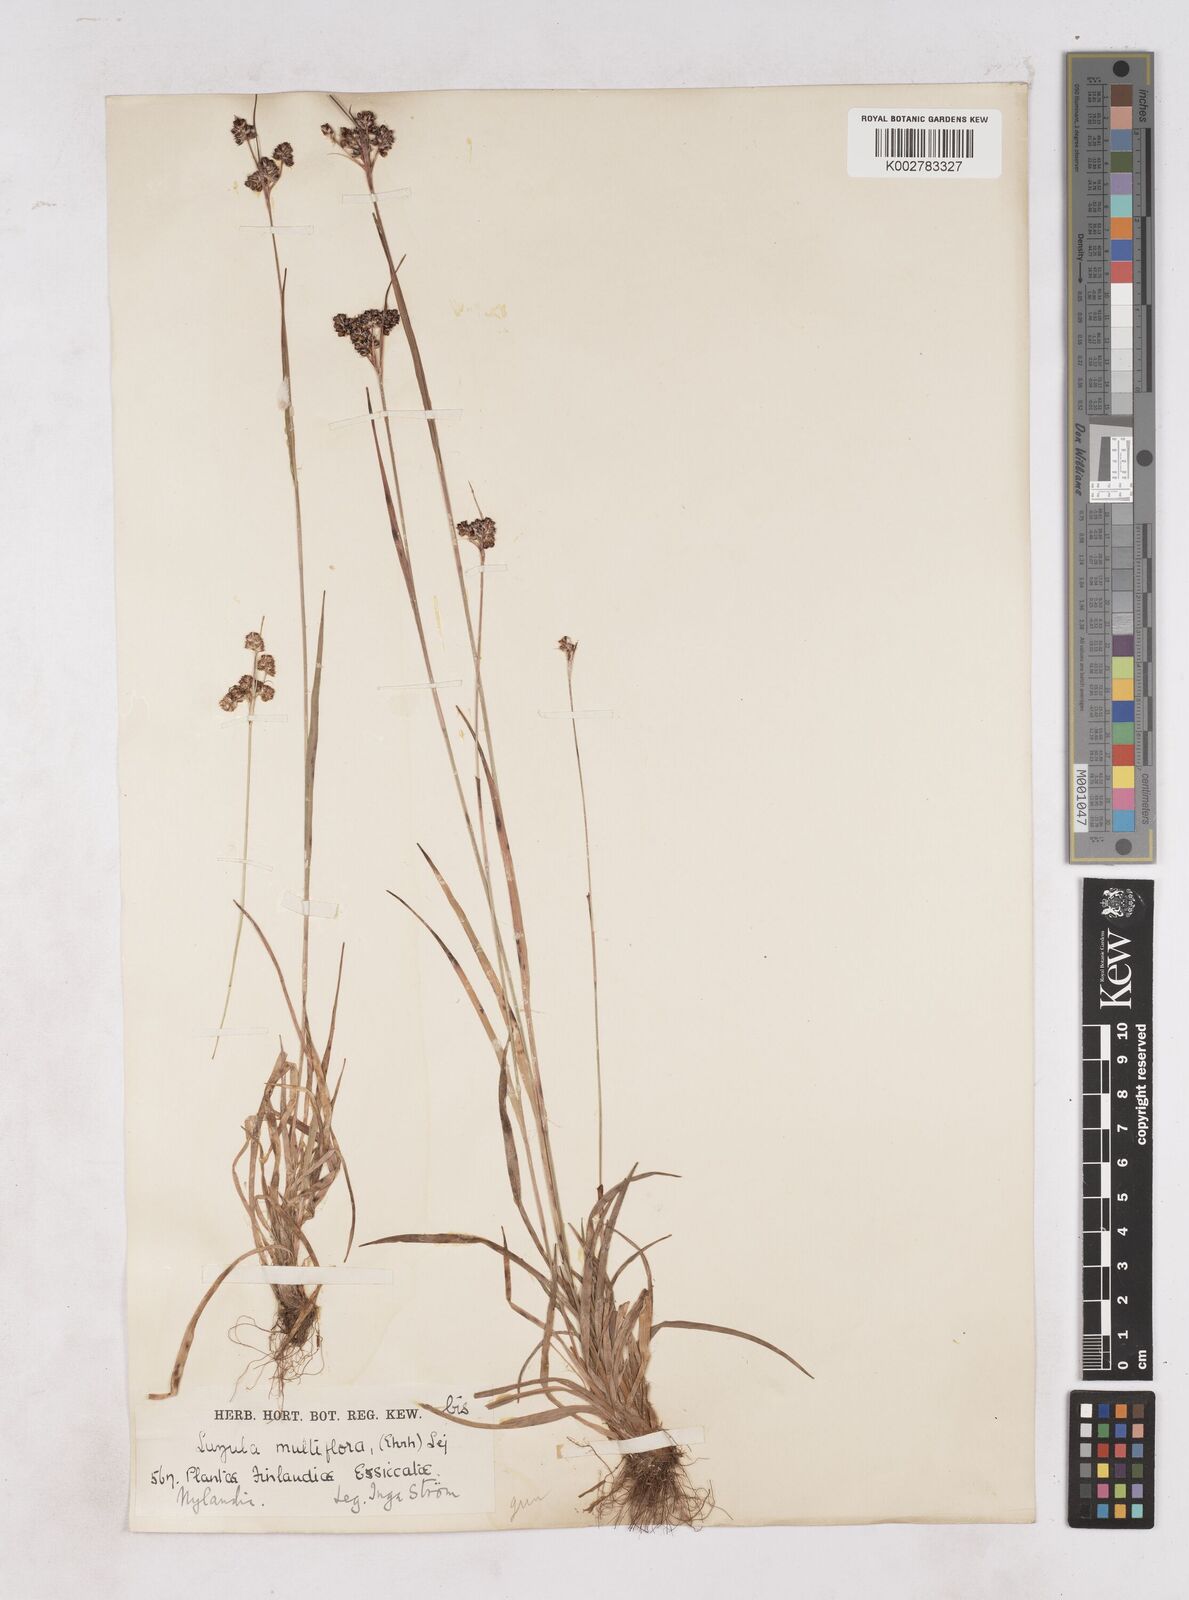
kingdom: Plantae
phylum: Tracheophyta
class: Liliopsida
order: Poales
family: Juncaceae
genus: Luzula
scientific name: Luzula multiflora
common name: Heath wood-rush
